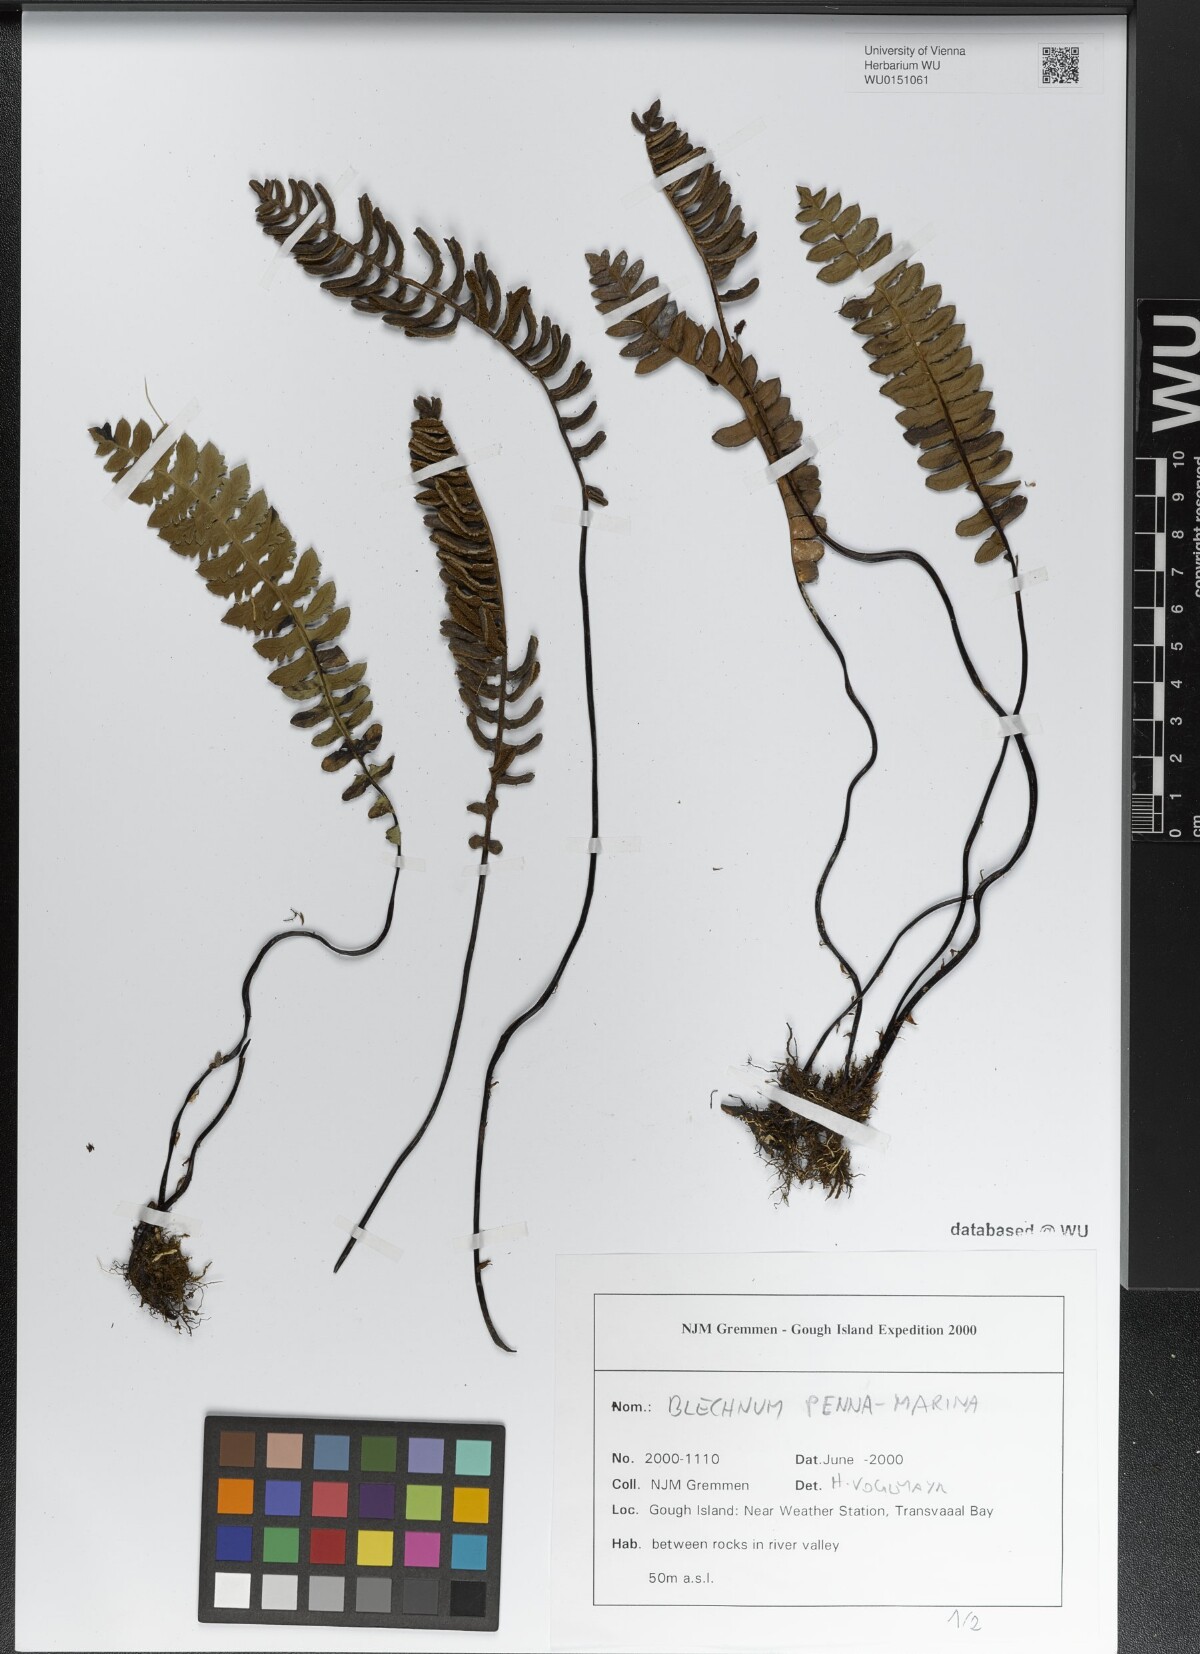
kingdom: Plantae
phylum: Tracheophyta
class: Polypodiopsida
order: Polypodiales
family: Blechnaceae
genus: Austroblechnum
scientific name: Austroblechnum penna-marina
